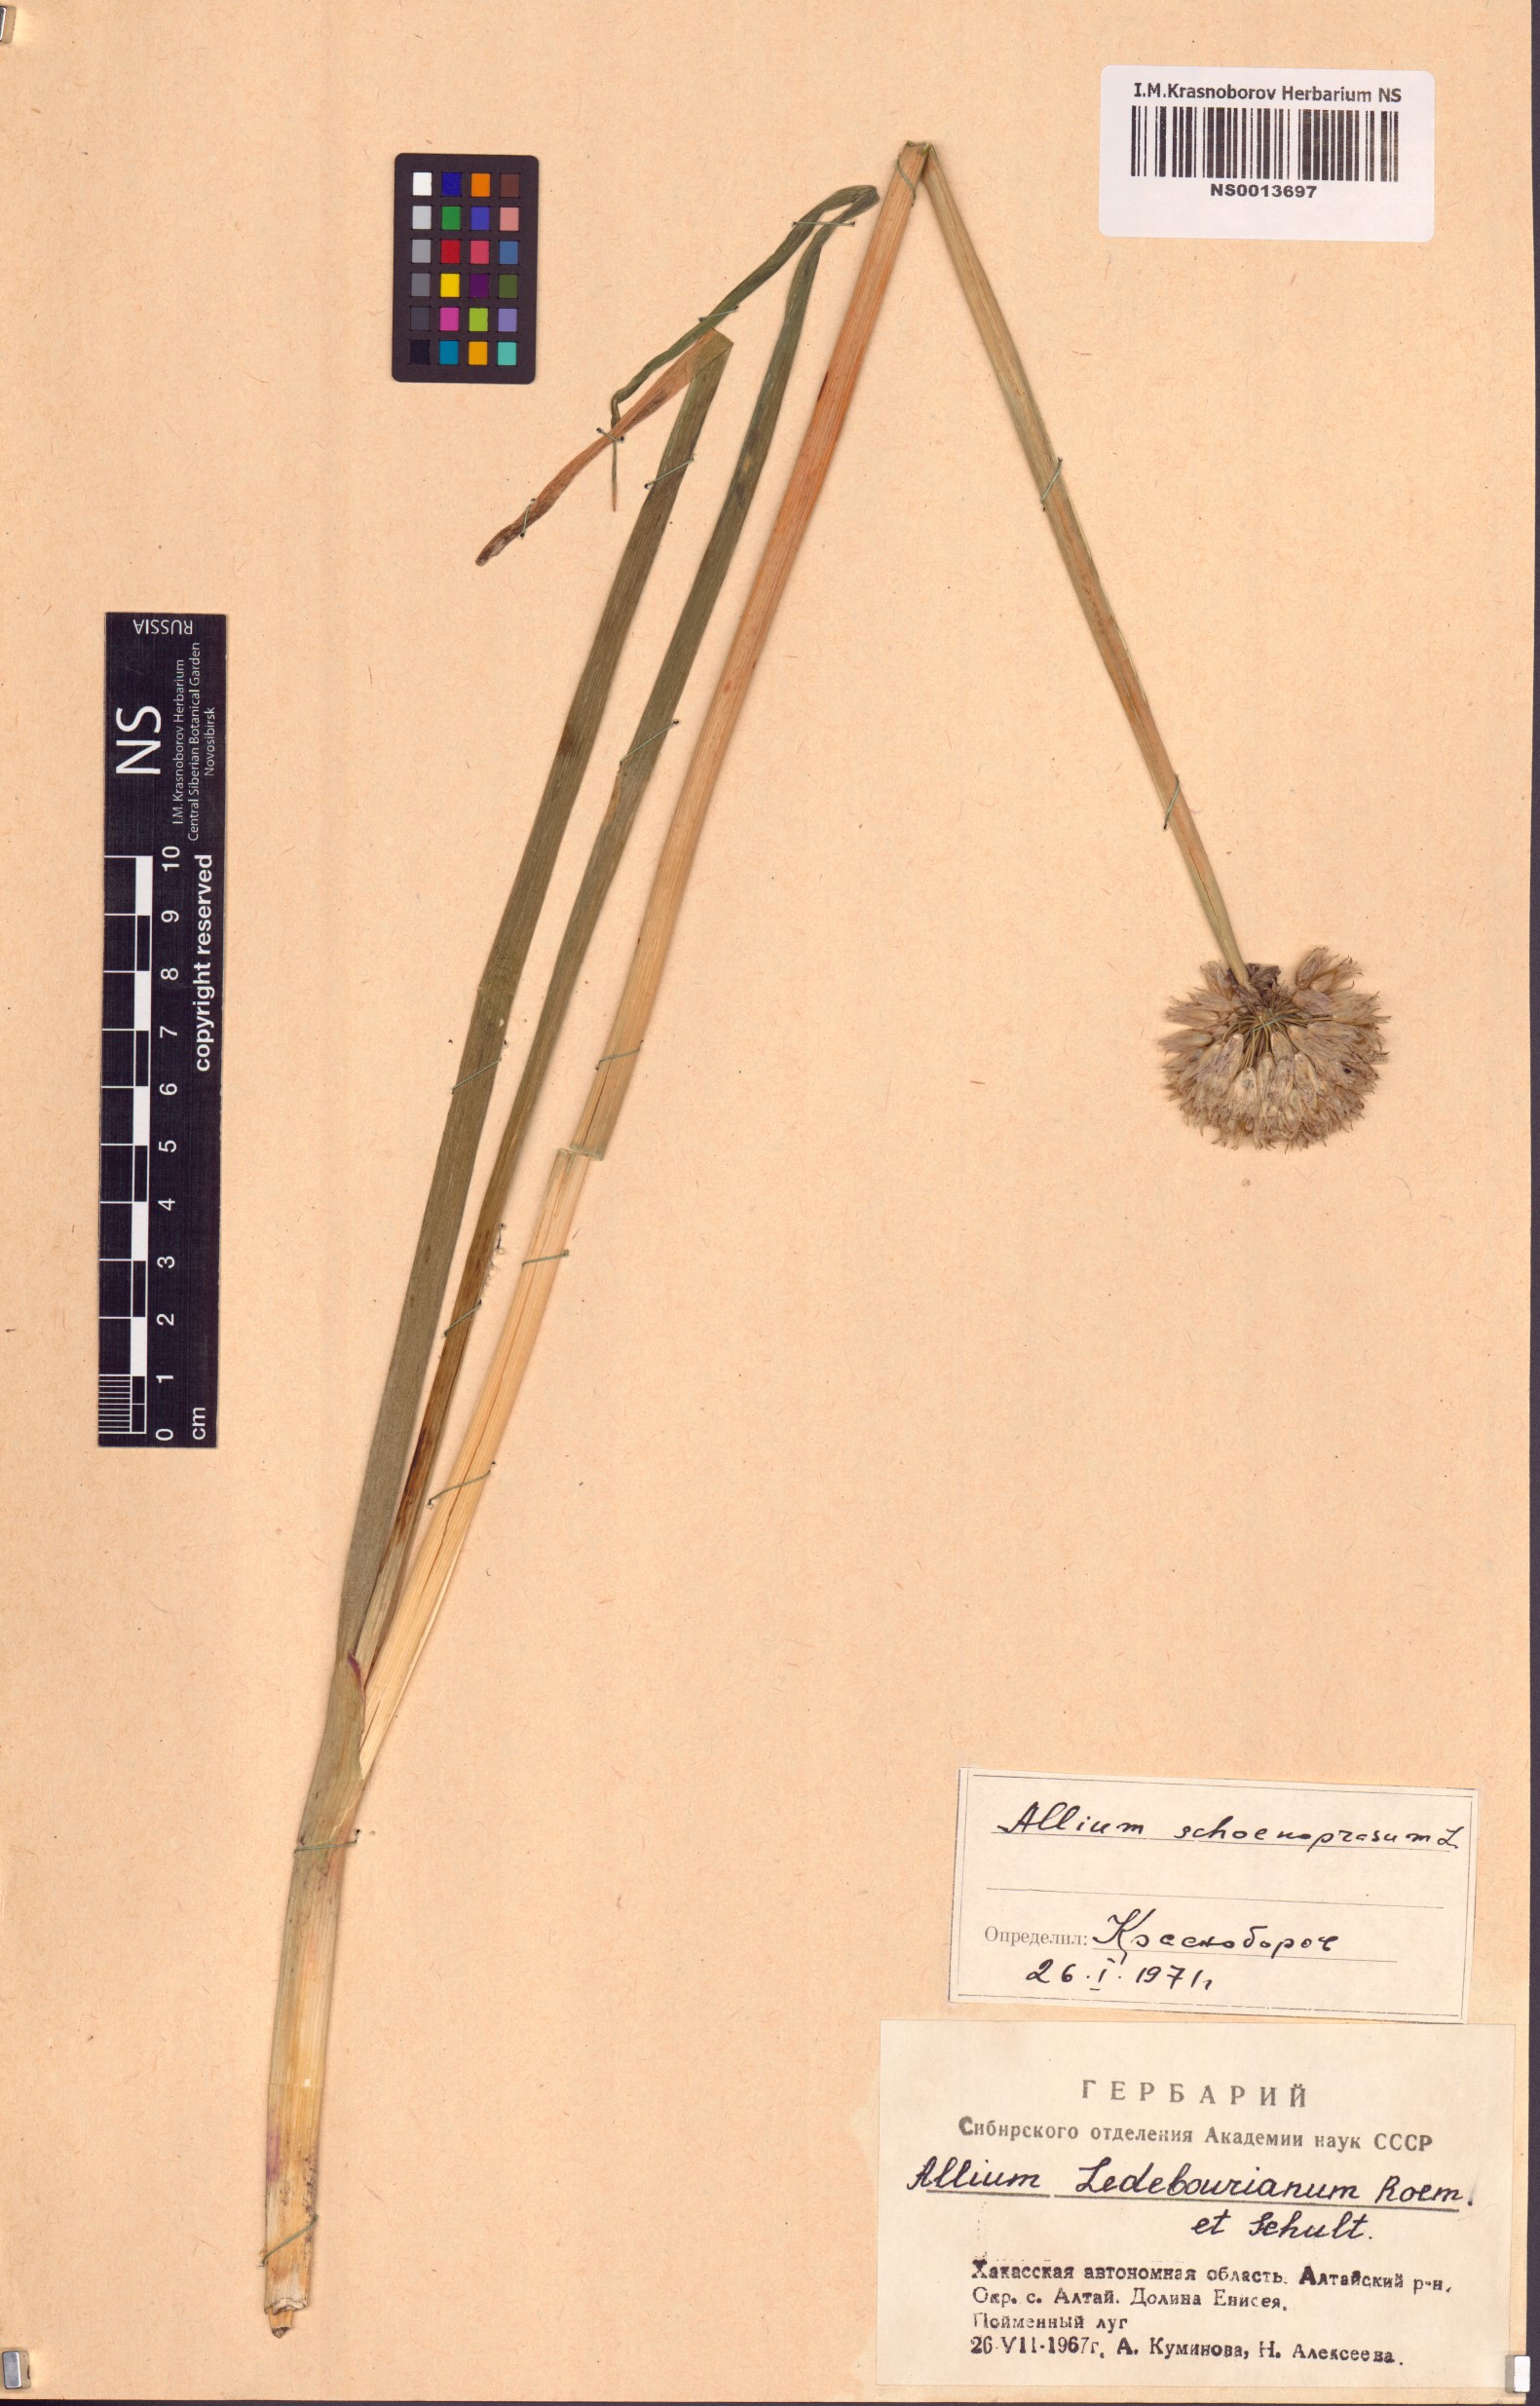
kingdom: Plantae
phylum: Tracheophyta
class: Liliopsida
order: Asparagales
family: Amaryllidaceae
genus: Allium
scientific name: Allium schoenoprasum
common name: Chives
